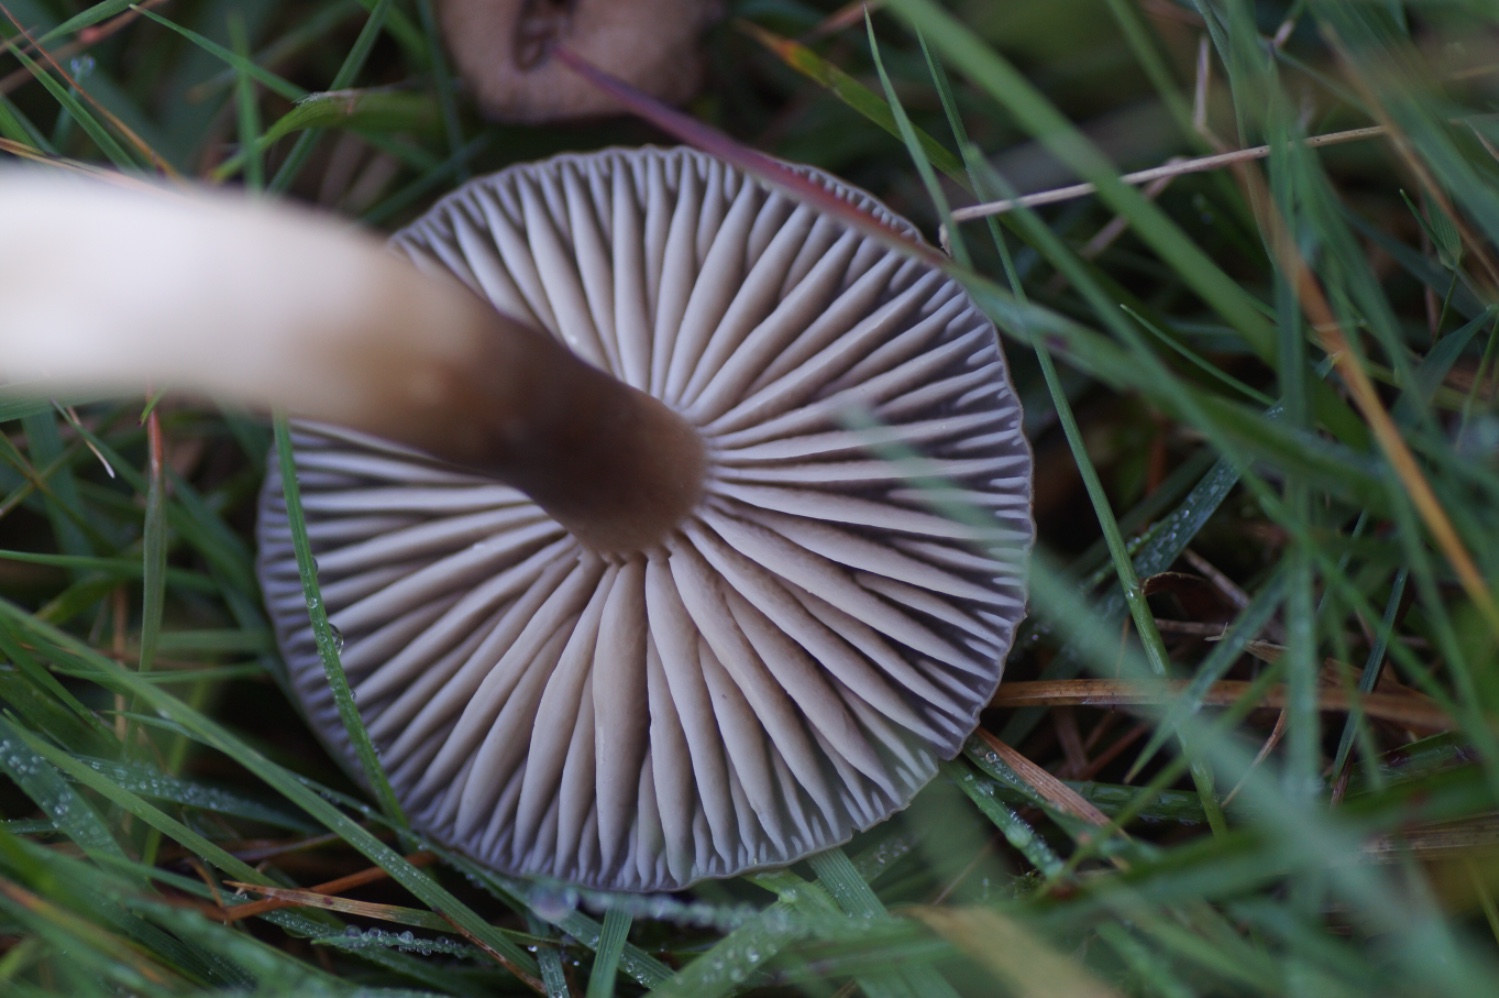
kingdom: Fungi
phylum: Basidiomycota
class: Agaricomycetes
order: Agaricales
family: Hygrophoraceae
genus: Neohygrocybe
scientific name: Neohygrocybe nitrata
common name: stinkende vokshat
